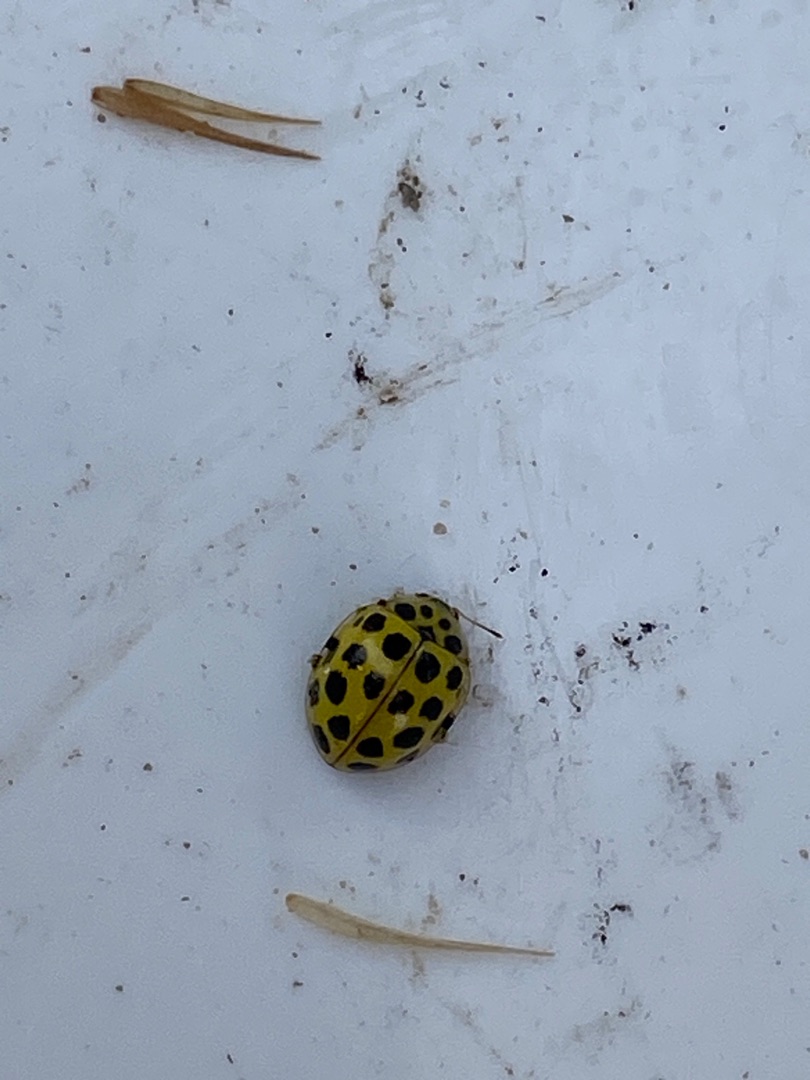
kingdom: Animalia
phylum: Arthropoda
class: Insecta
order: Coleoptera
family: Coccinellidae
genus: Psyllobora
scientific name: Psyllobora vigintiduopunctata
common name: Toogtyveplettet mariehøne
